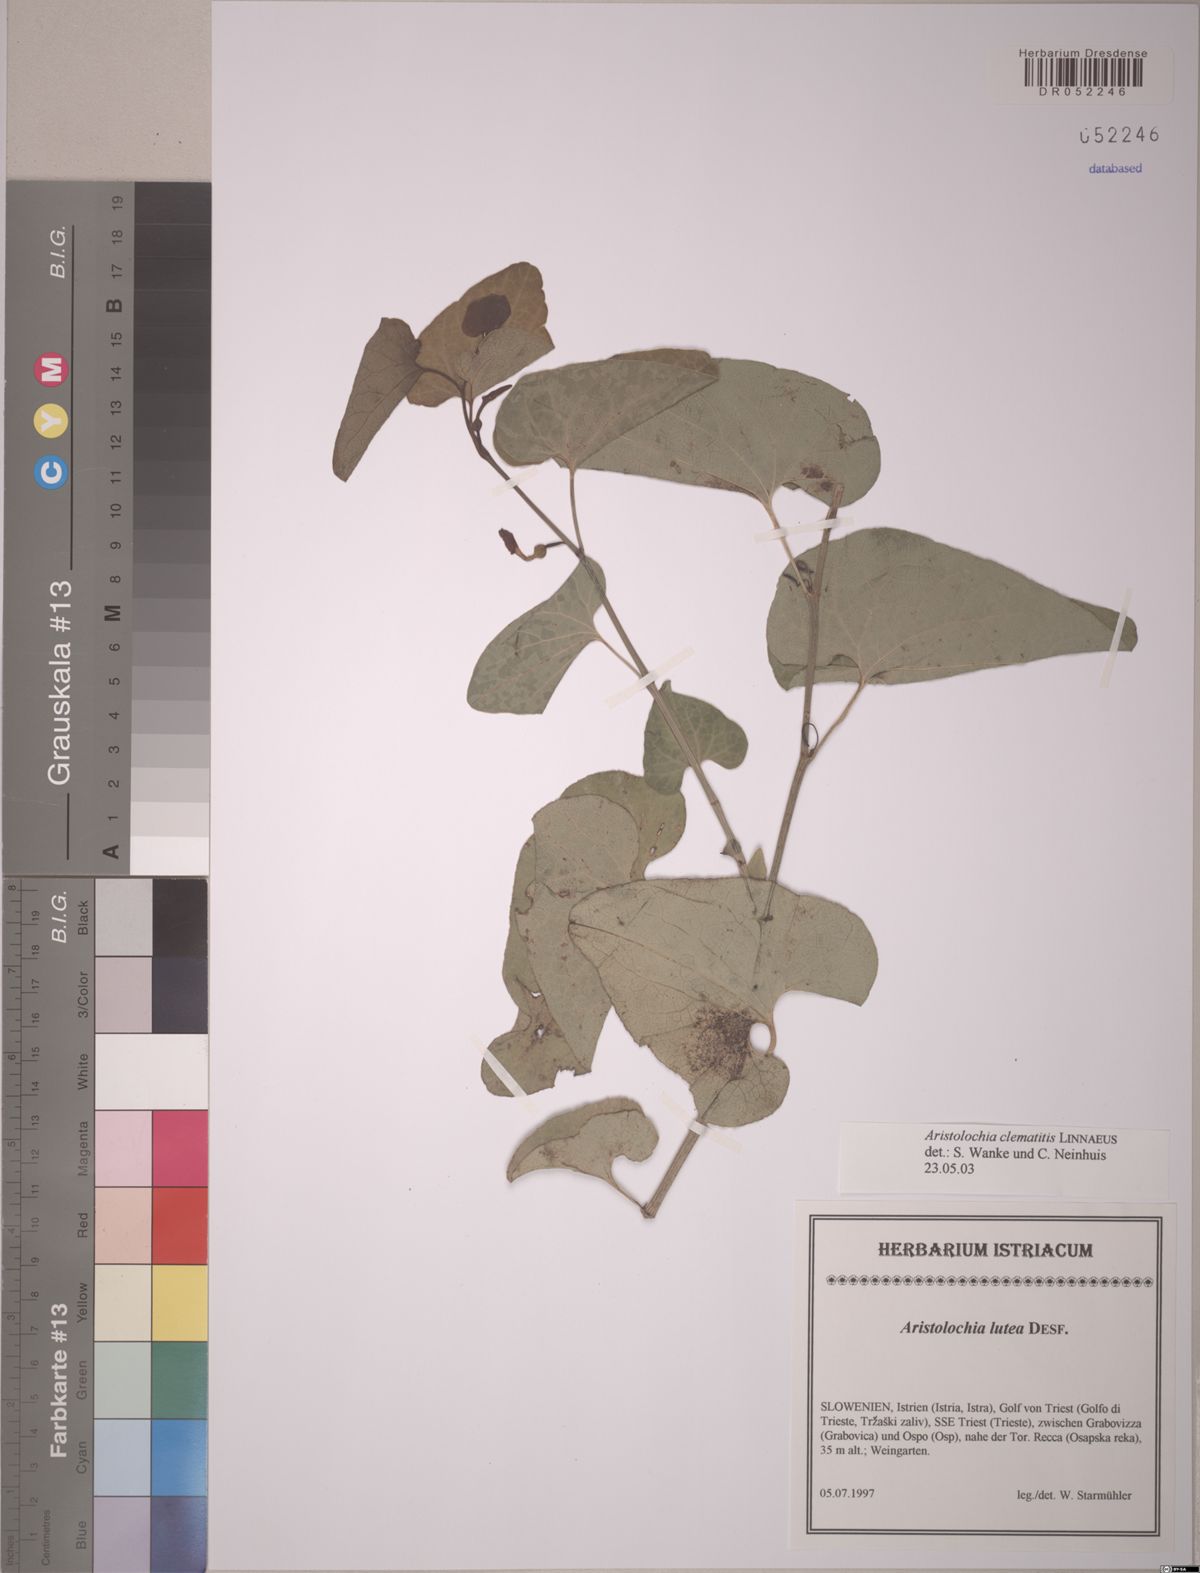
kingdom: Plantae
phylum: Tracheophyta
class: Magnoliopsida
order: Piperales
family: Aristolochiaceae
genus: Aristolochia
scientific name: Aristolochia clematitis
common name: Birthwort
